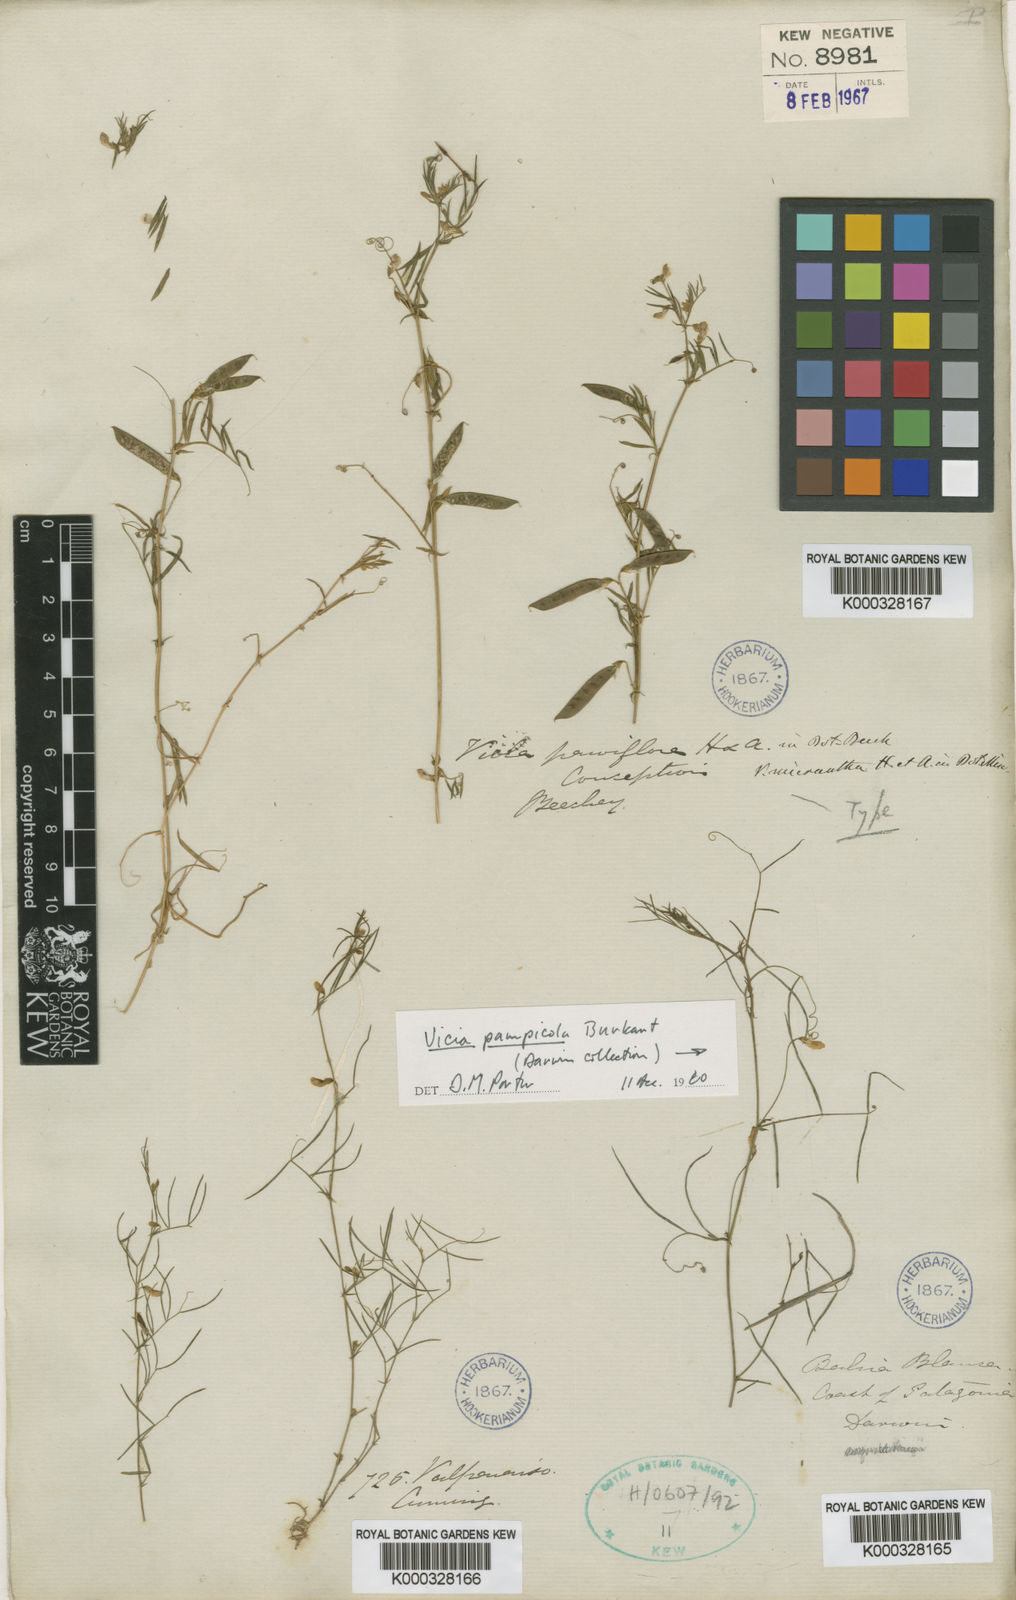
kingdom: Plantae
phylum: Tracheophyta
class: Magnoliopsida
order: Fabales
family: Fabaceae
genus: Vicia
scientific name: Vicia linearifolia
